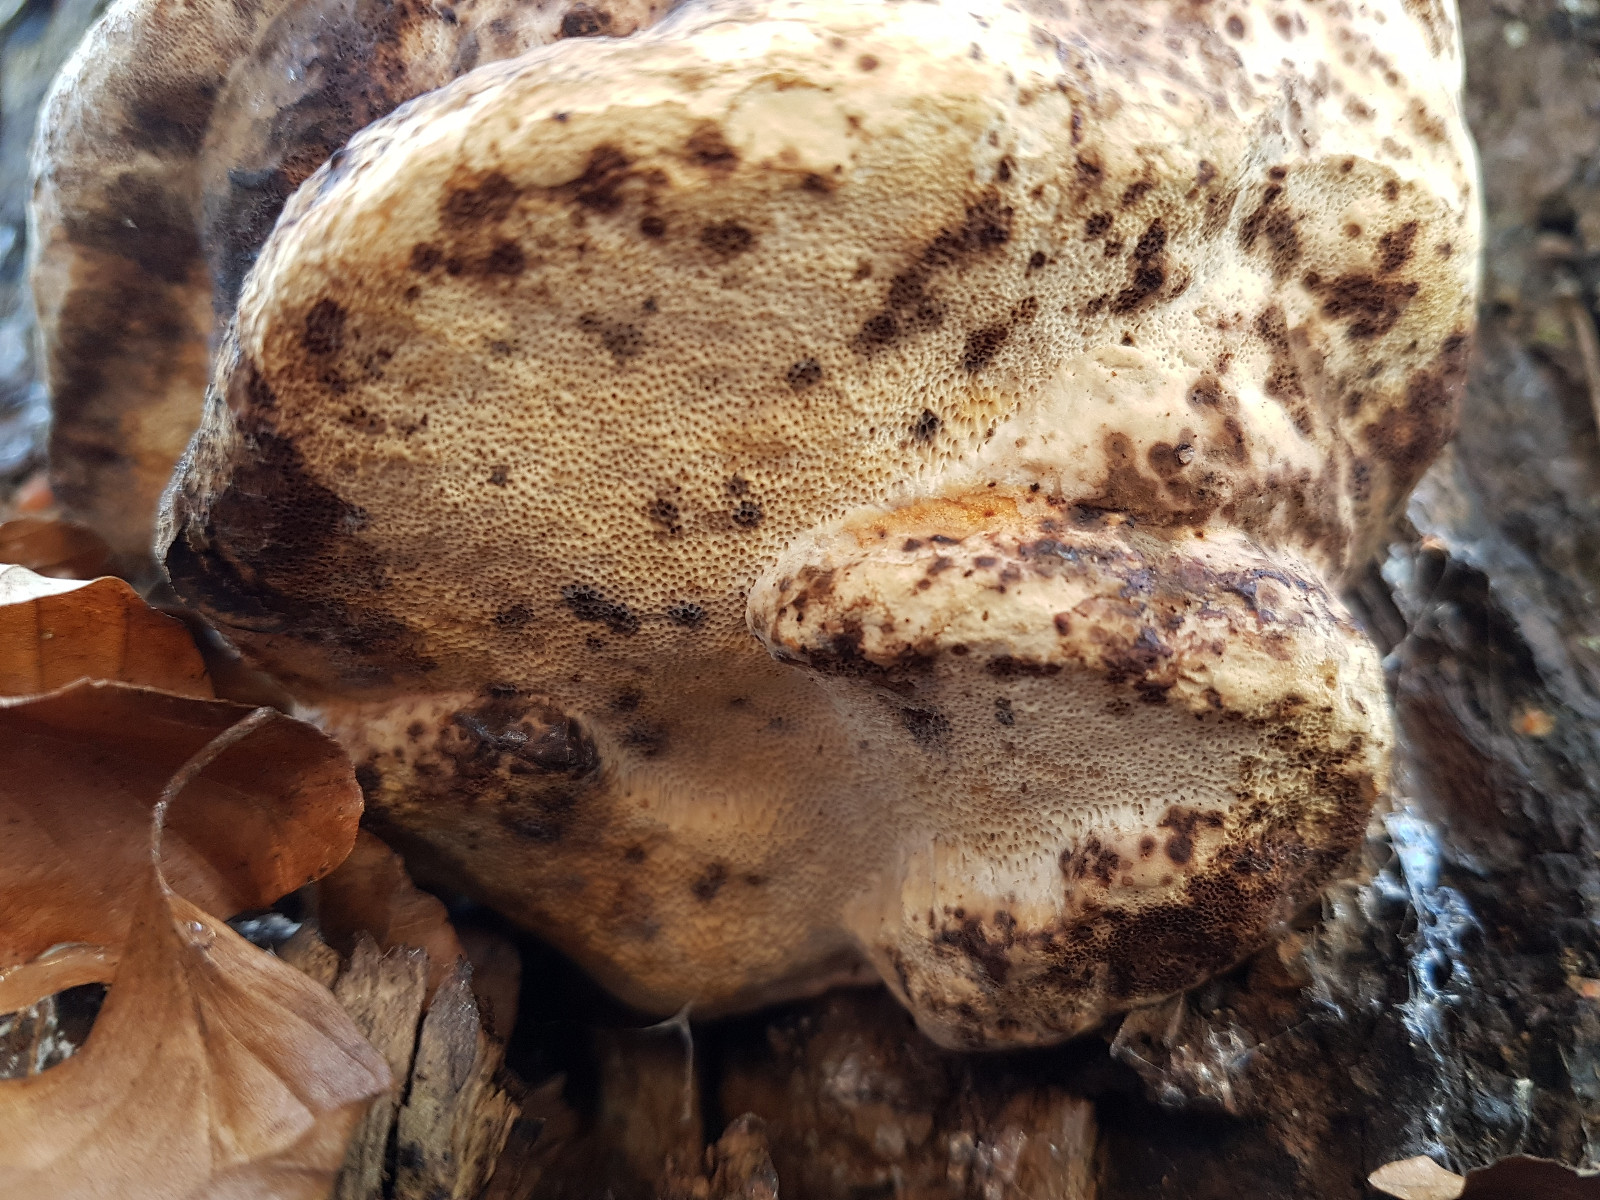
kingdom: Fungi
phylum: Basidiomycota
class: Agaricomycetes
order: Polyporales
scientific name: Polyporales
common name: poresvampordenen
